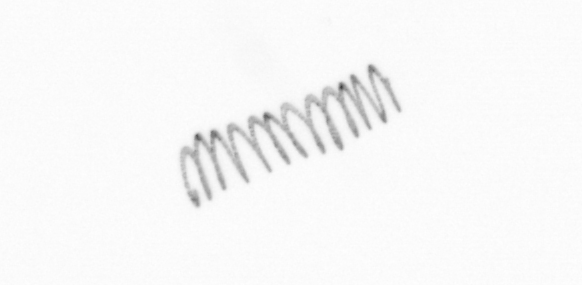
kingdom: Chromista
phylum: Ochrophyta
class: Bacillariophyceae
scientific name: Bacillariophyceae
